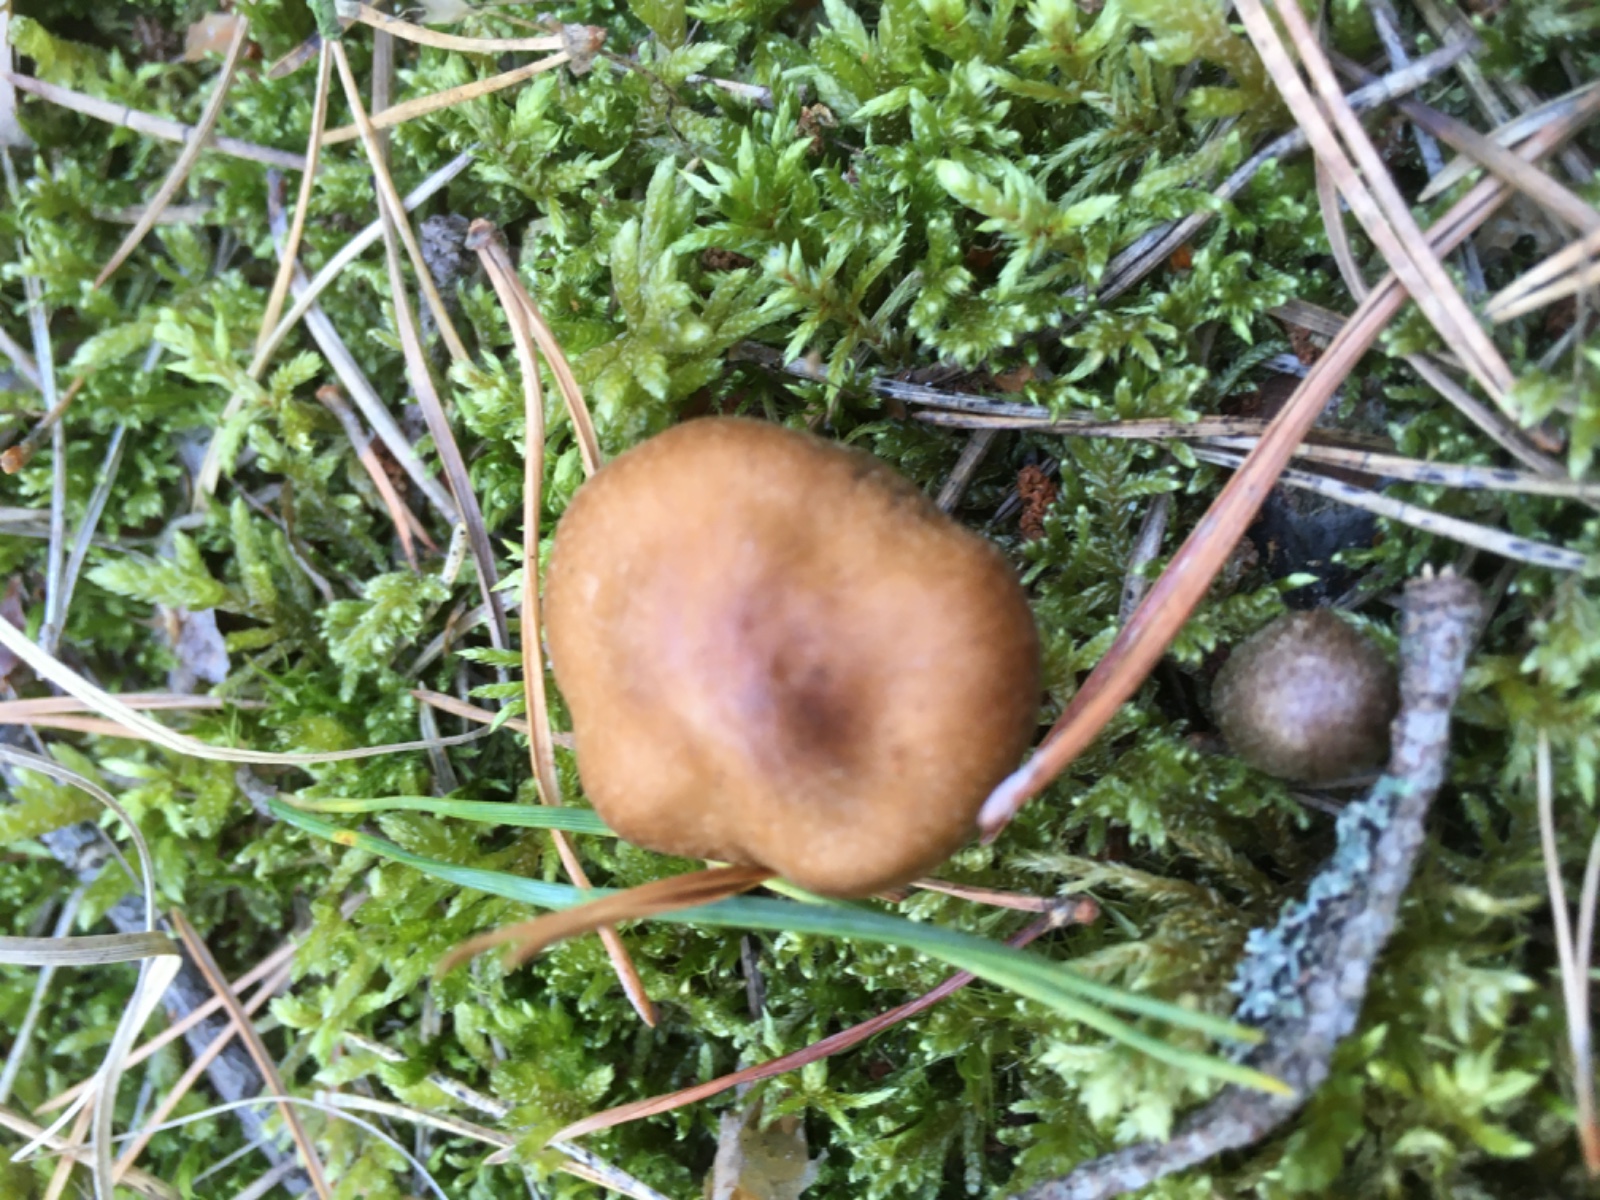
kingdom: Fungi
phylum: Basidiomycota
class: Agaricomycetes
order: Agaricales
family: Cortinariaceae
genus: Cortinarius
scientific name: Cortinarius
